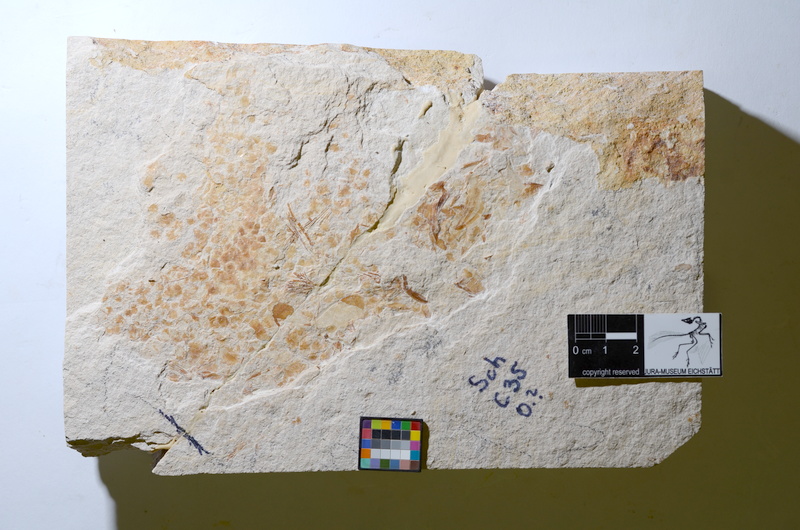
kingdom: Animalia
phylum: Chordata
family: Ascalaboidae
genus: Tharsis
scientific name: Tharsis dubius
